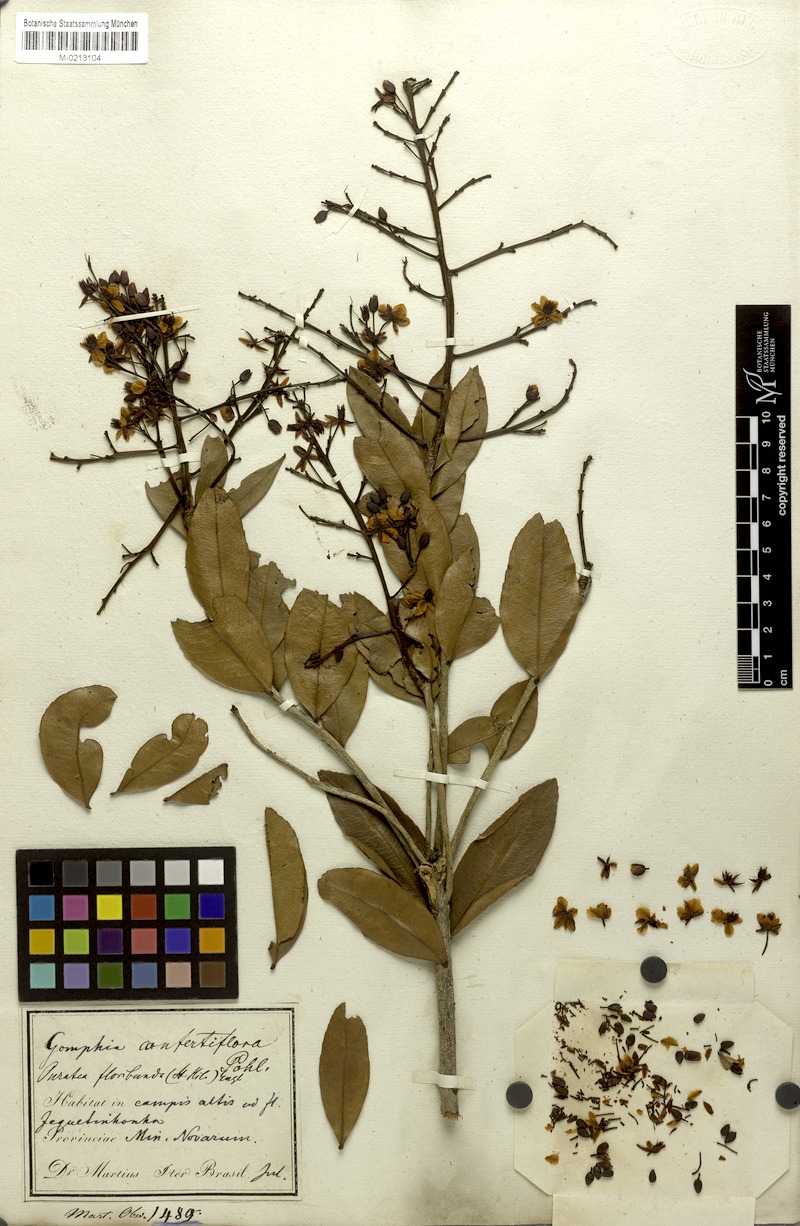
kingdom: Plantae
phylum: Tracheophyta
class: Magnoliopsida
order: Malpighiales
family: Ochnaceae
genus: Ouratea
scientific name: Ouratea confertiflora
